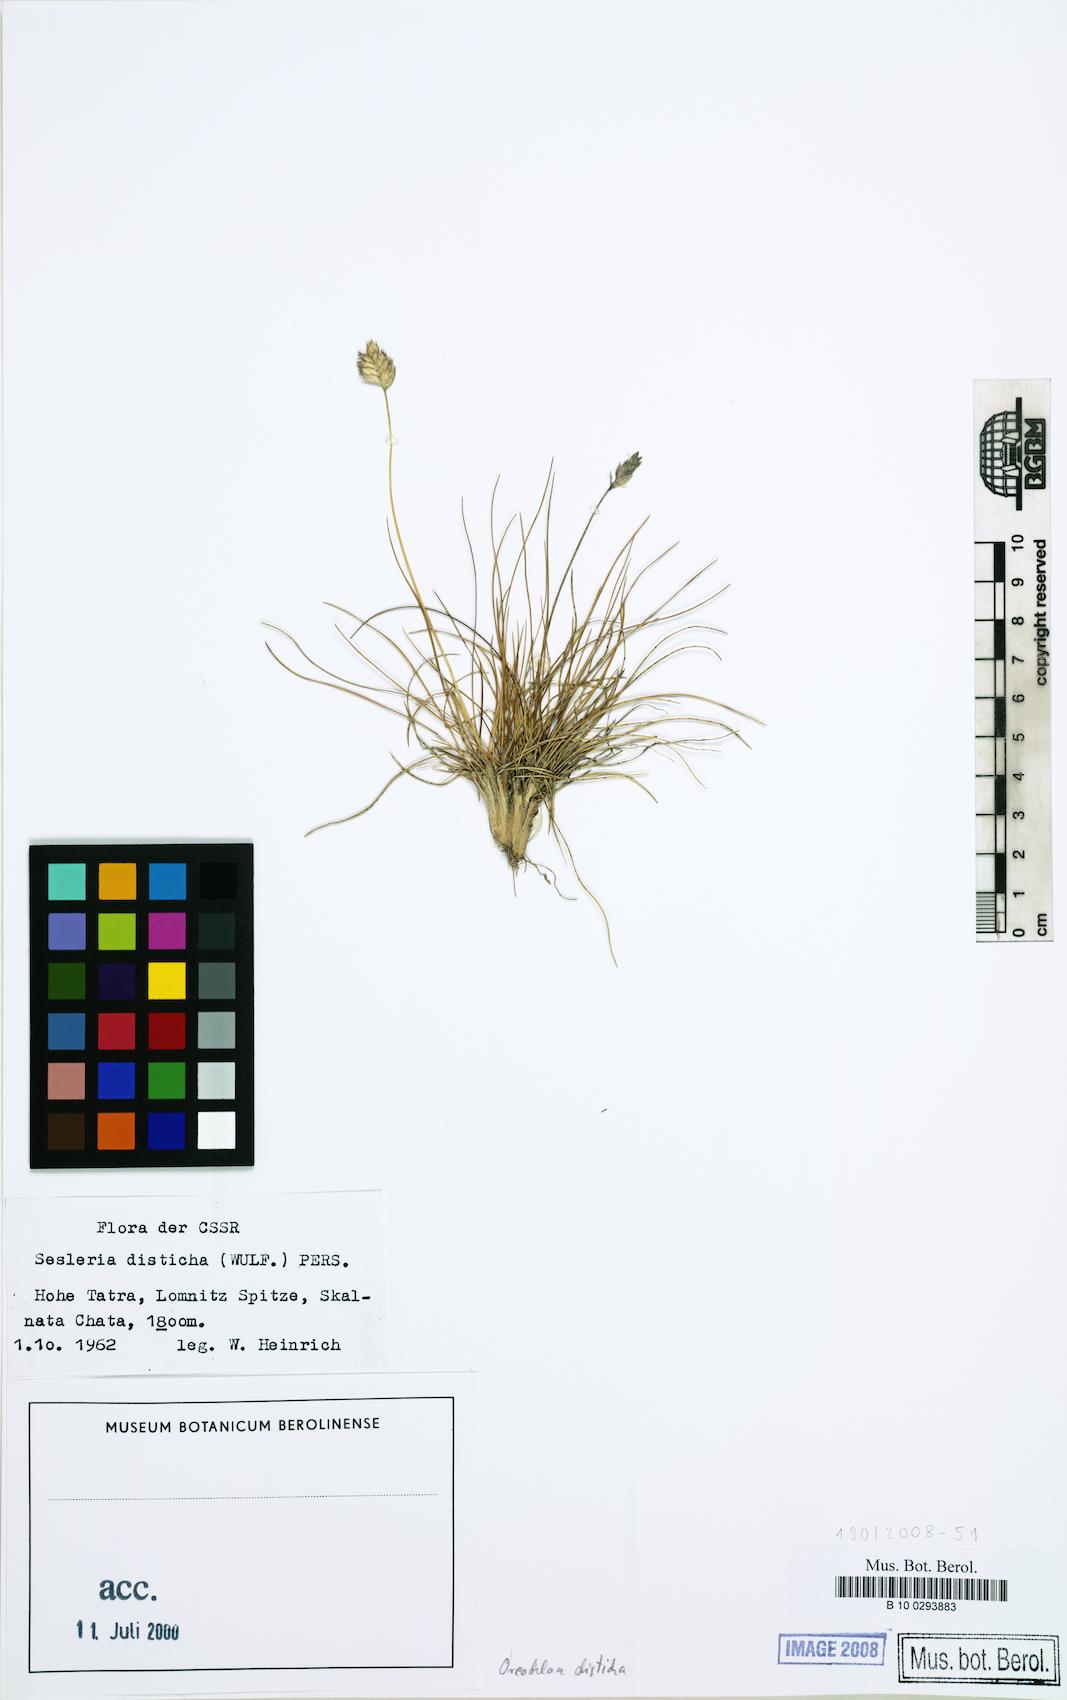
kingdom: Plantae
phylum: Tracheophyta
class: Liliopsida
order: Poales
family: Poaceae
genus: Oreochloa
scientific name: Oreochloa disticha
